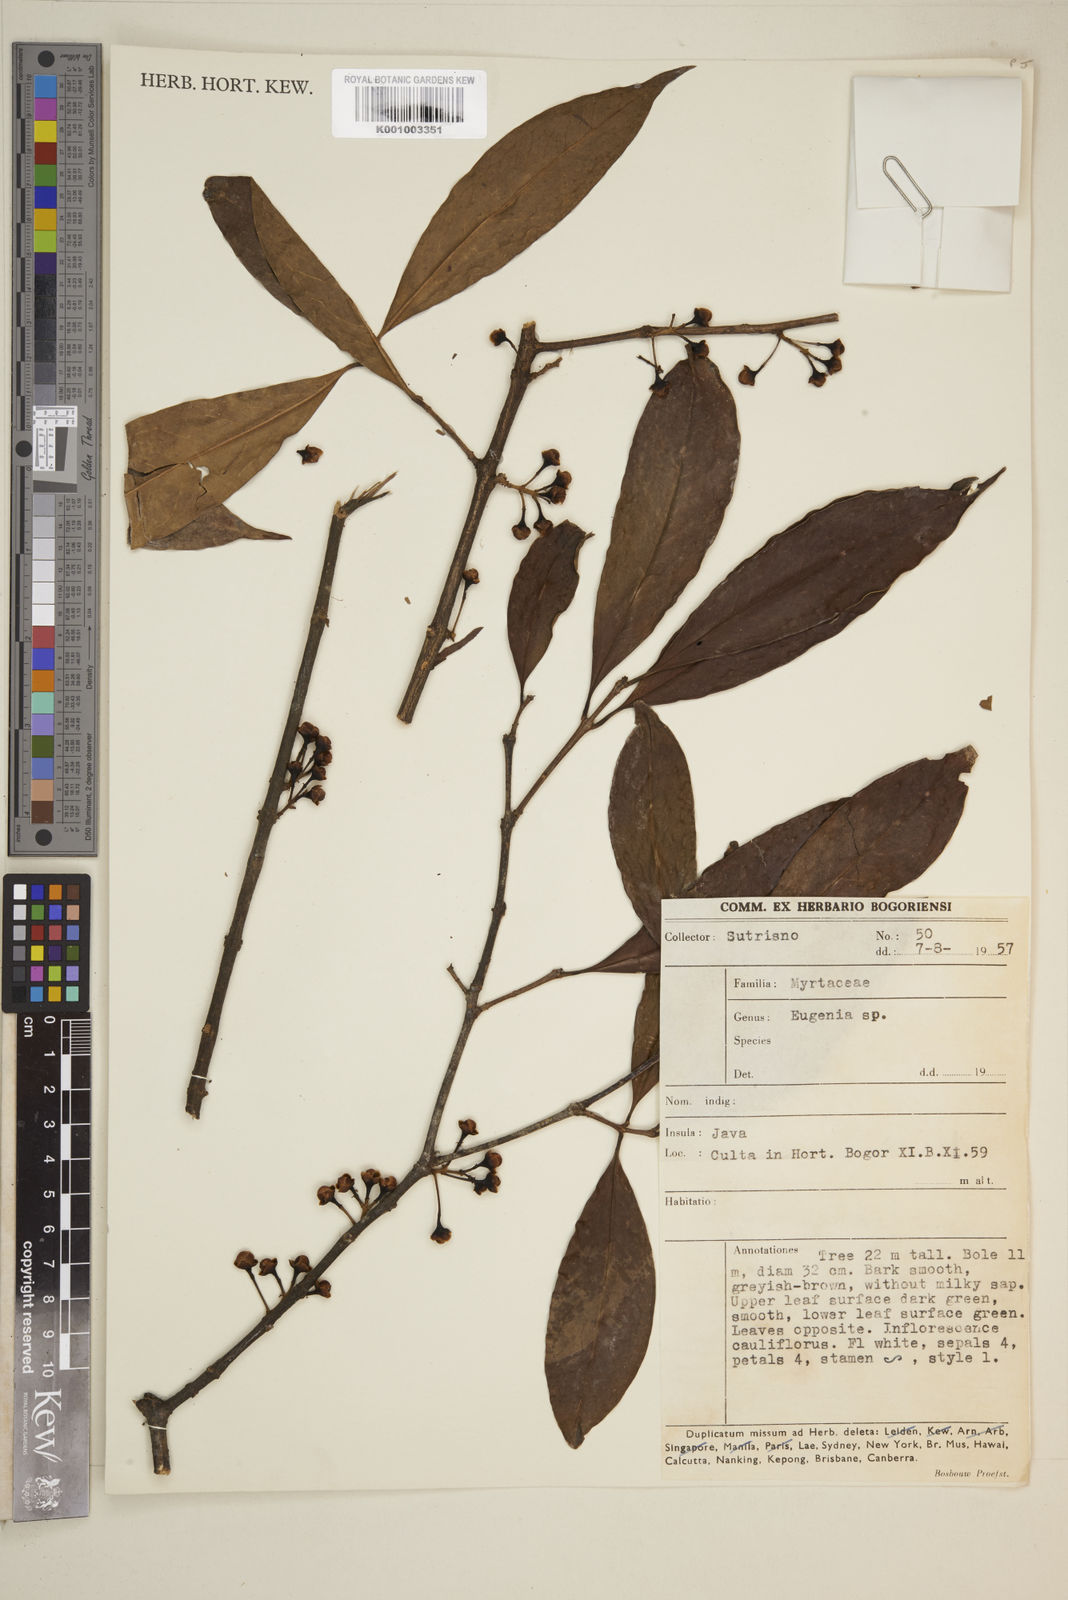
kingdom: Plantae
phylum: Tracheophyta
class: Magnoliopsida
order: Myrtales
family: Myrtaceae
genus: Eugenia
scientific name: Eugenia
